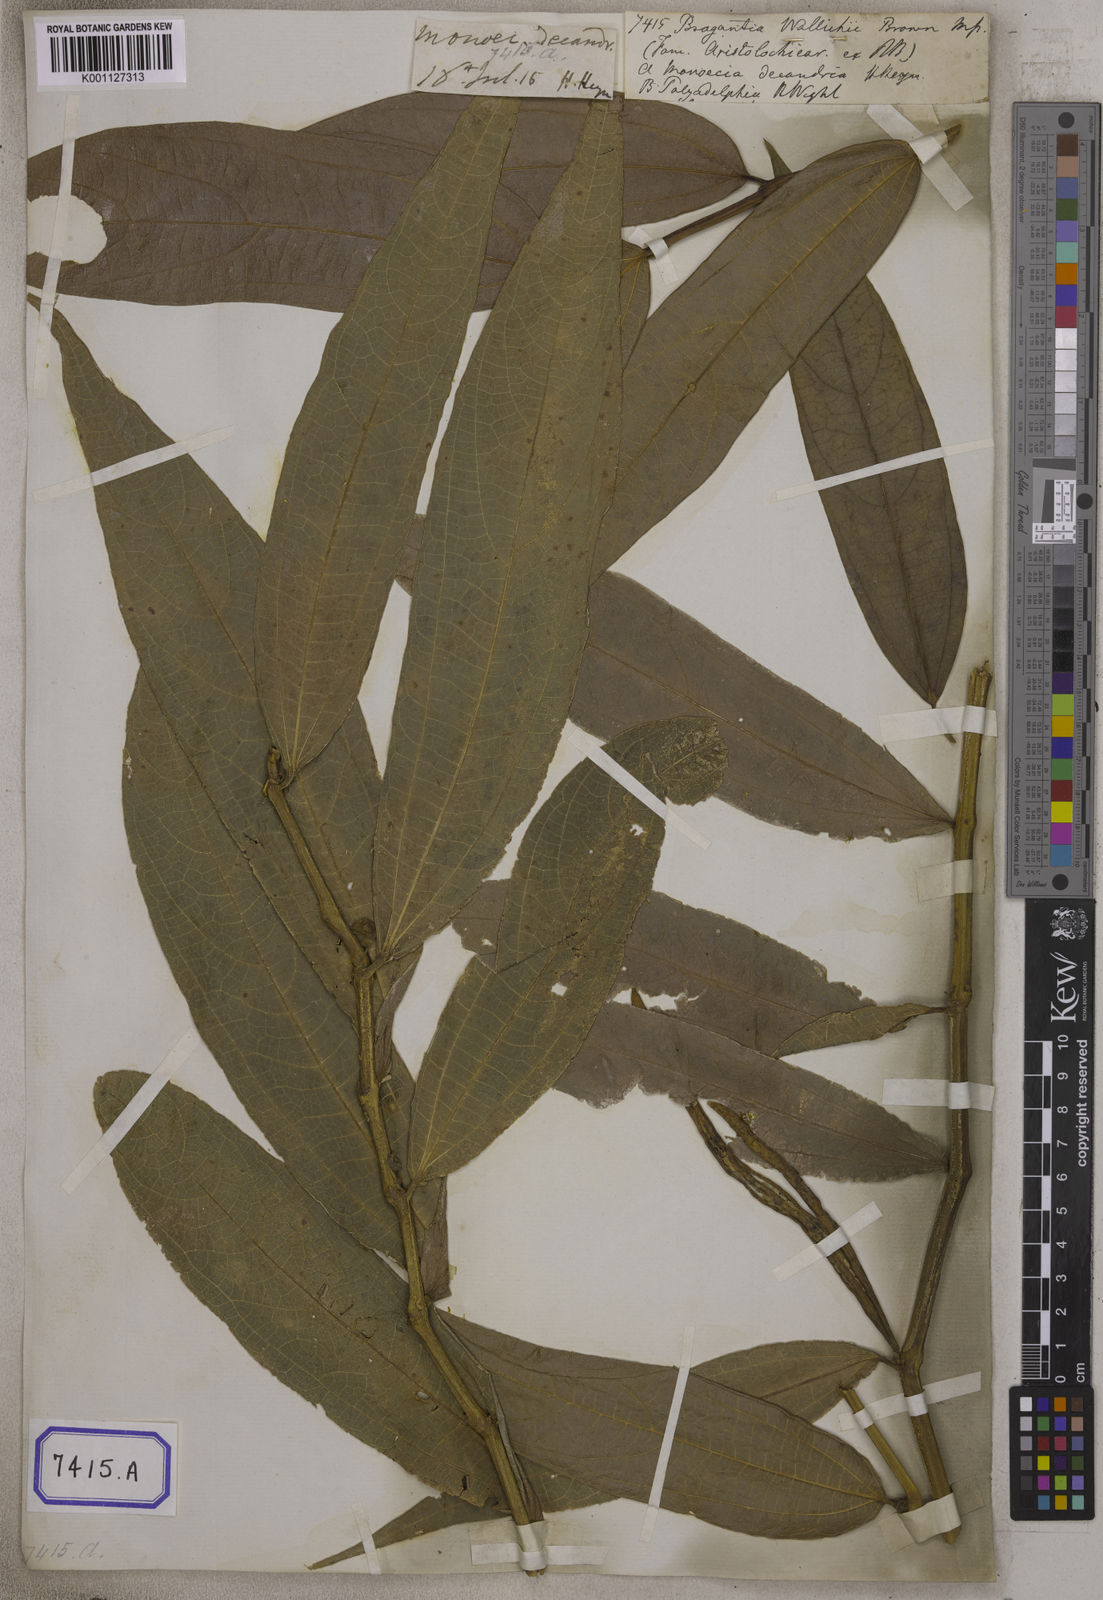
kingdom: Plantae
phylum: Tracheophyta
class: Magnoliopsida
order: Caryophyllales
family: Amaranthaceae
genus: Gomphrena
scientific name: Gomphrena
